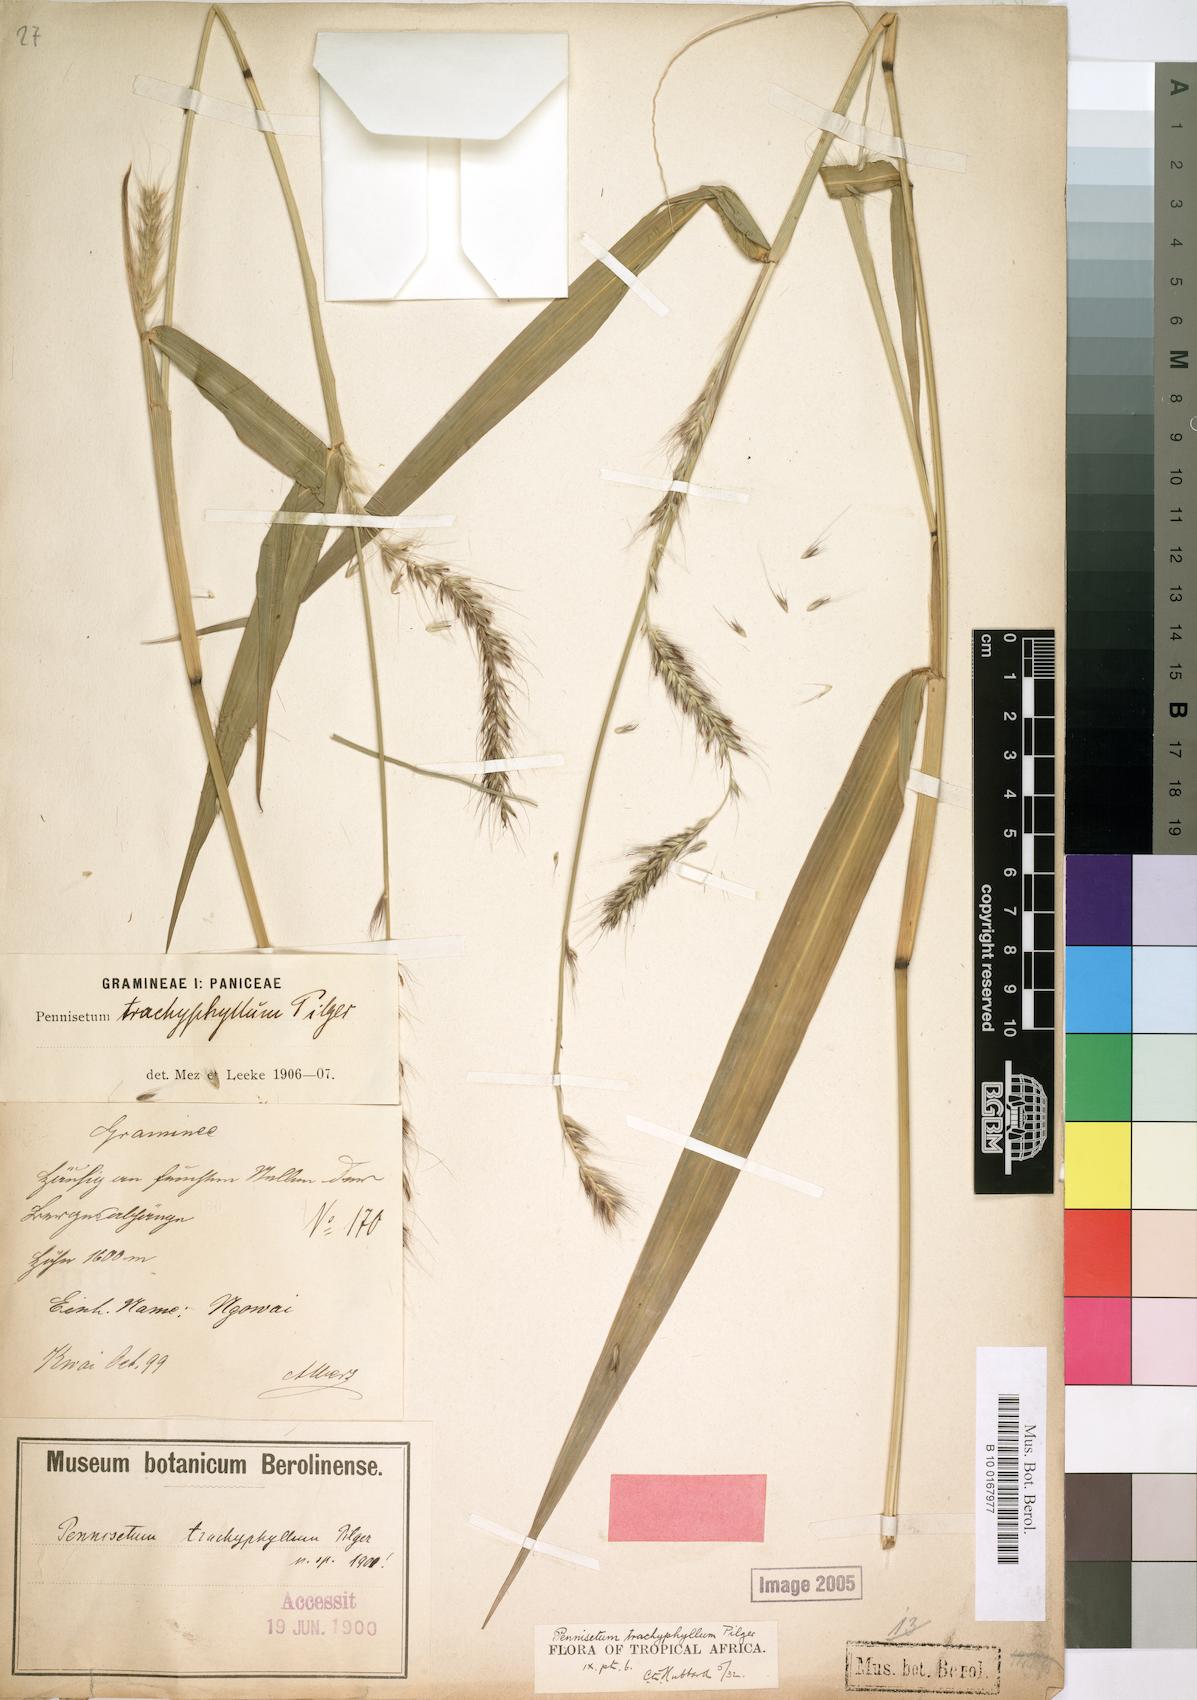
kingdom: Plantae
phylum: Tracheophyta
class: Liliopsida
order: Poales
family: Poaceae
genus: Cenchrus
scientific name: Cenchrus trachyphyllus
